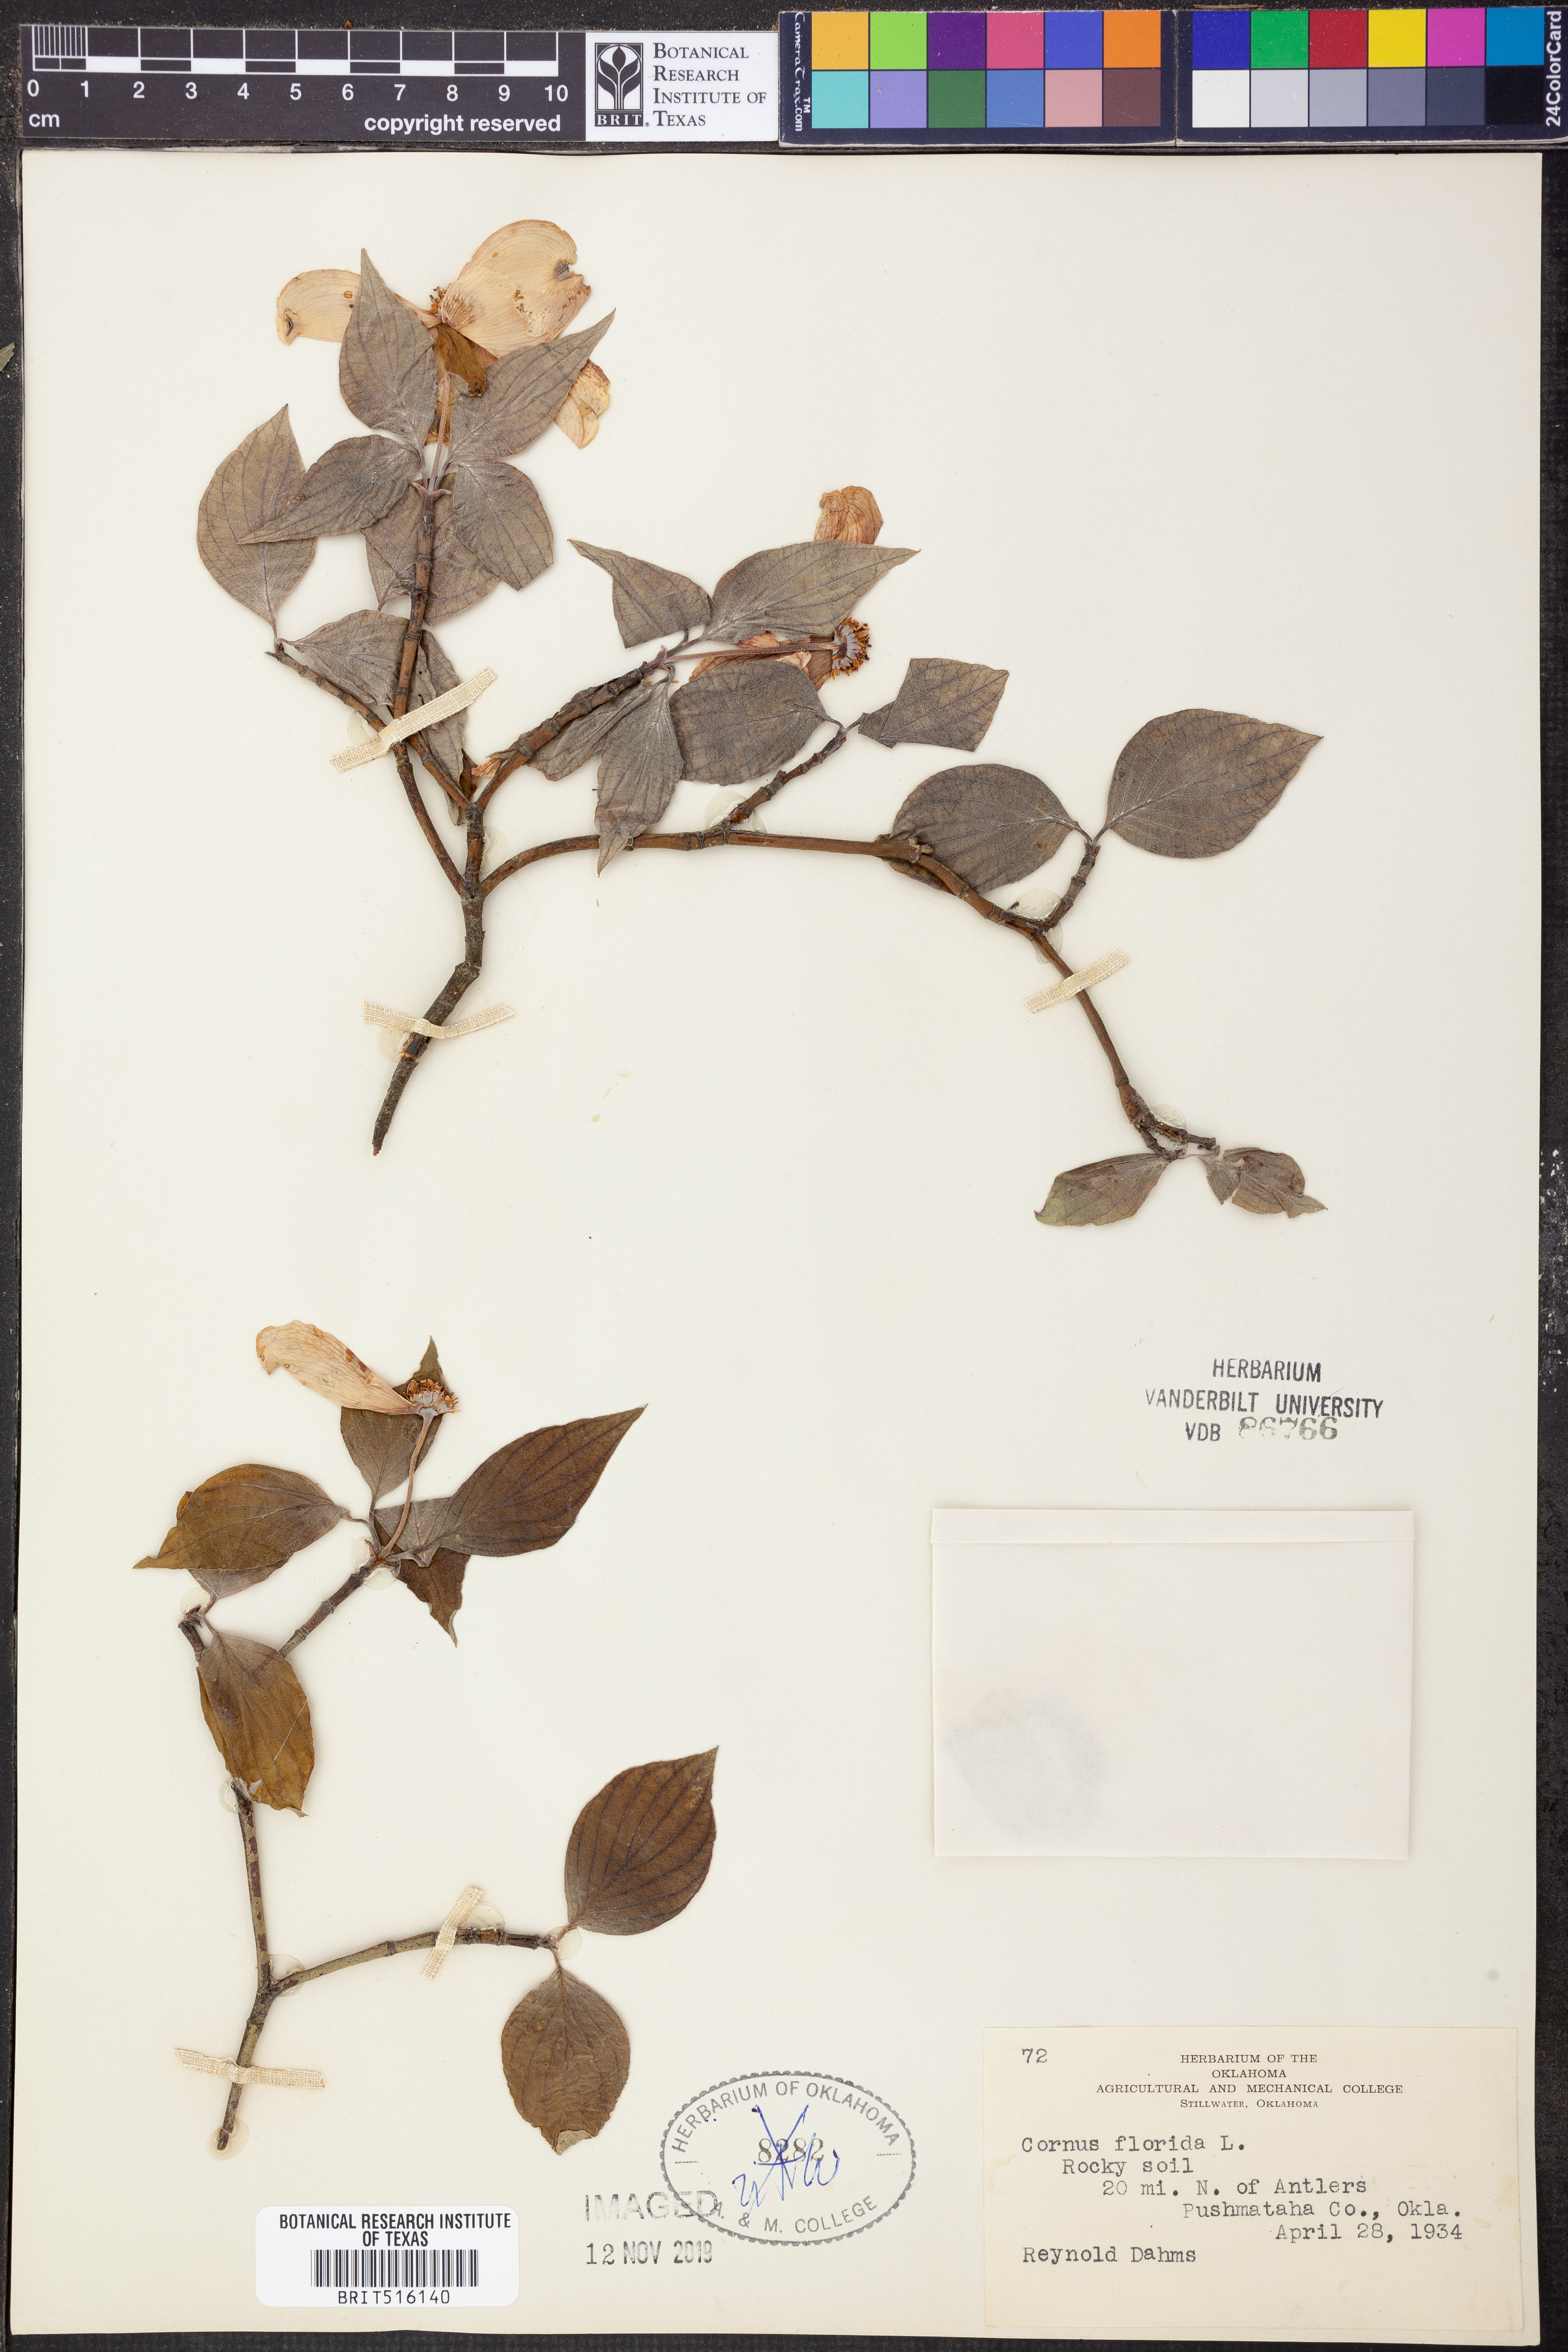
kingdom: Plantae
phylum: Tracheophyta
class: Magnoliopsida
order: Cornales
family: Cornaceae
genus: Cornus
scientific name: Cornus florida
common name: Flowering dogwood
